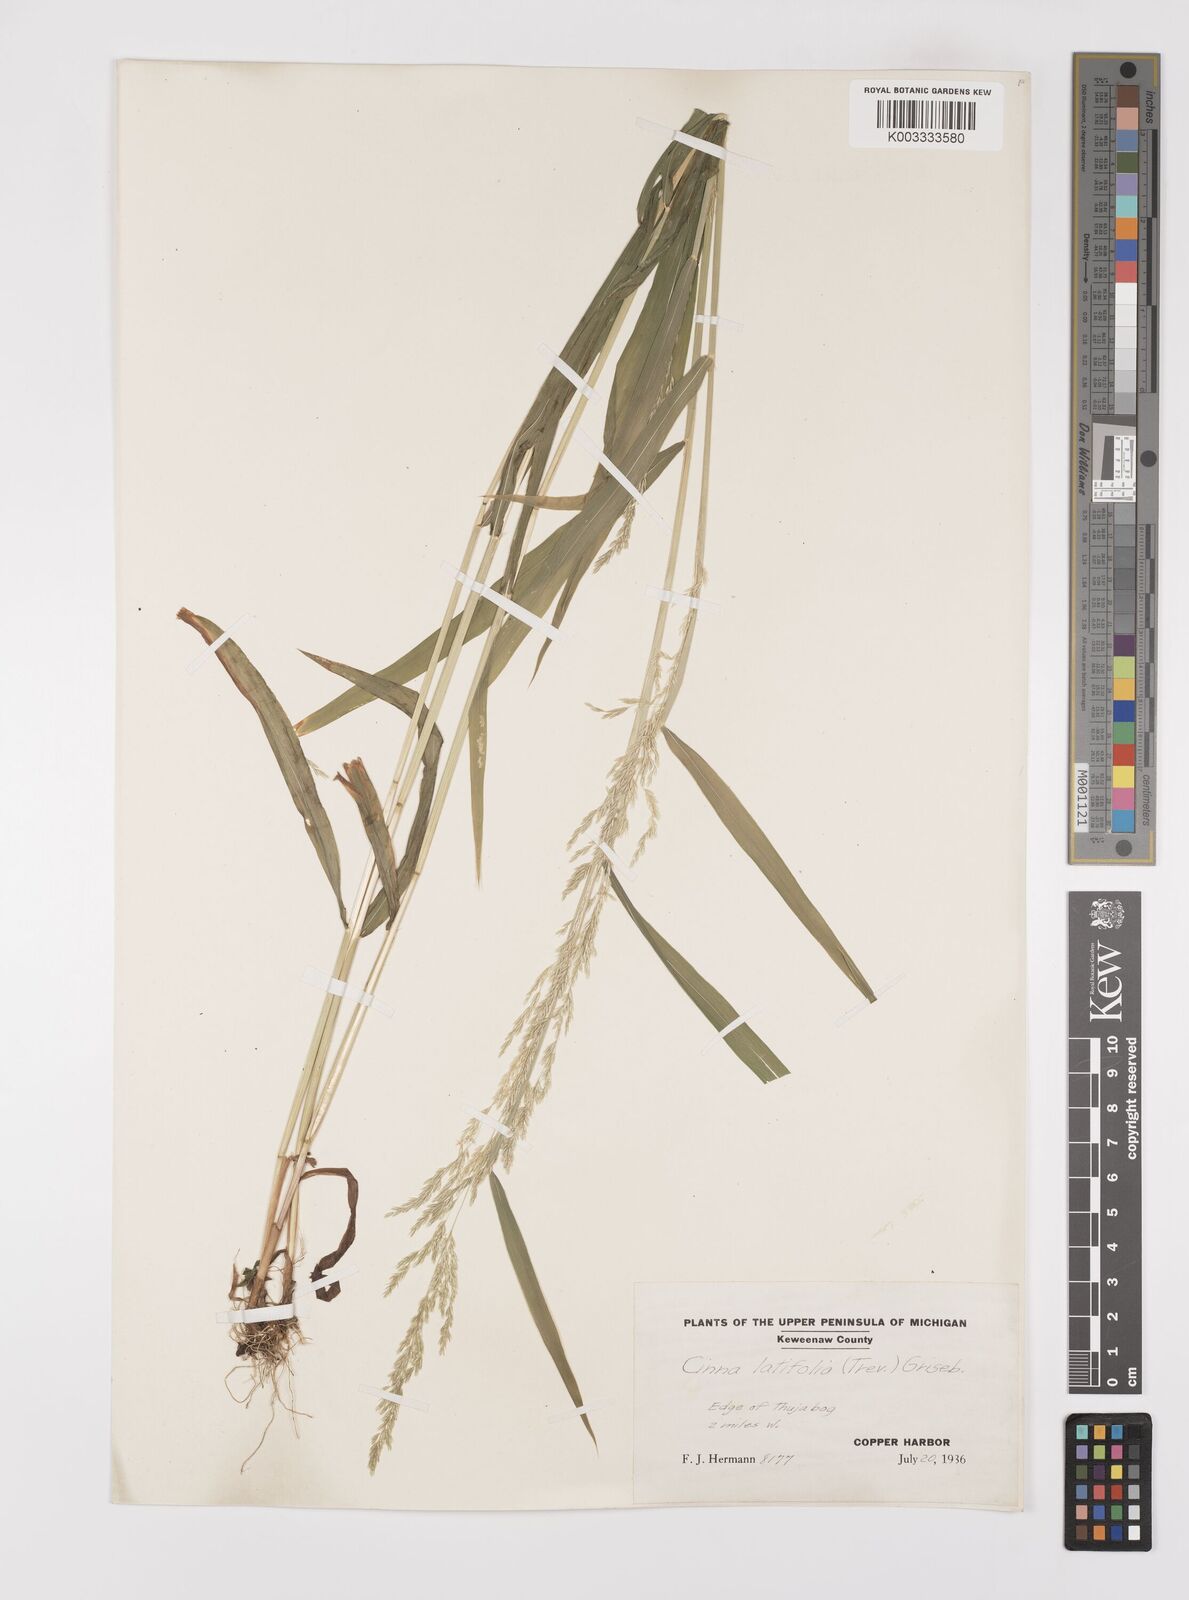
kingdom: Plantae
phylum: Tracheophyta
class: Liliopsida
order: Poales
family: Poaceae
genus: Cinna
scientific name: Cinna latifolia
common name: Drooping woodreed
